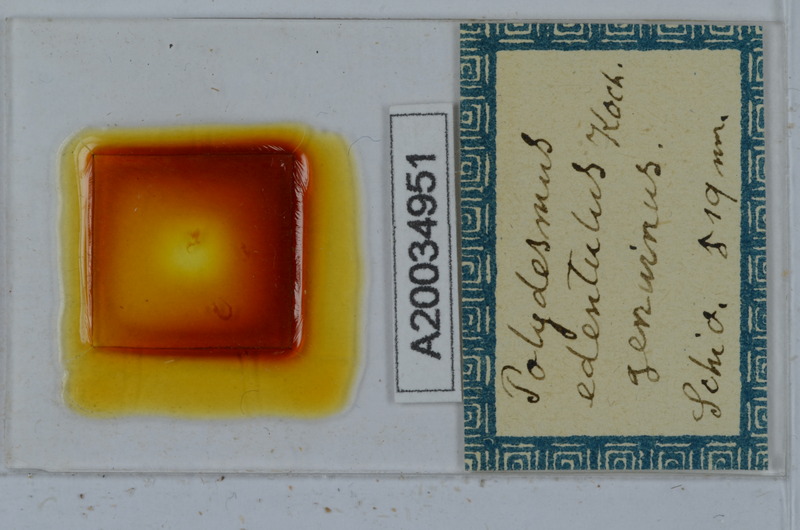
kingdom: Animalia
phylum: Arthropoda
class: Diplopoda
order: Polydesmida
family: Polydesmidae
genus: Polydesmus
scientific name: Polydesmus edentulus
